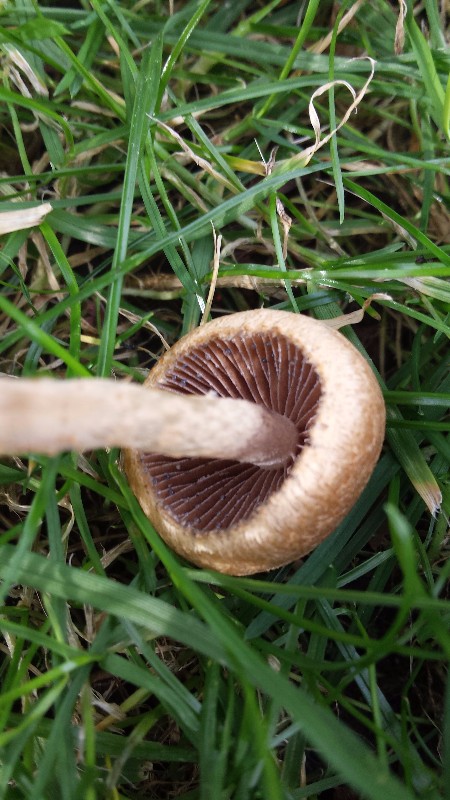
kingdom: Fungi
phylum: Basidiomycota
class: Agaricomycetes
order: Agaricales
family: Psathyrellaceae
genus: Lacrymaria
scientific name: Lacrymaria lacrymabunda
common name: grædende mørkhat
